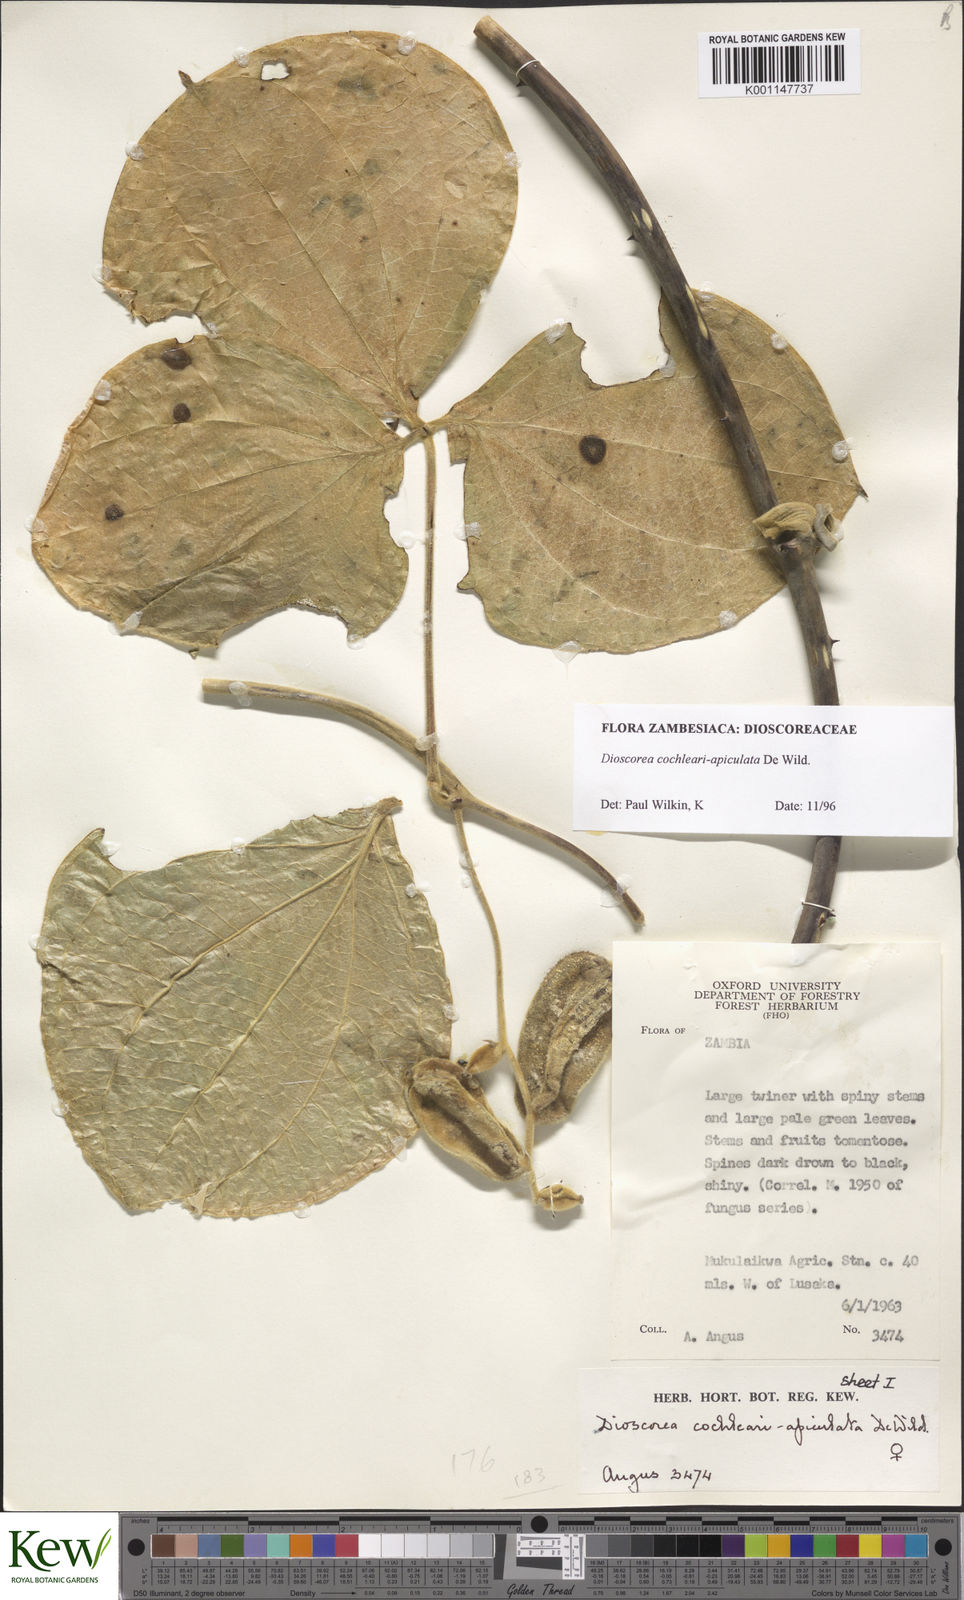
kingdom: Plantae
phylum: Tracheophyta
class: Liliopsida
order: Dioscoreales
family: Dioscoreaceae
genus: Dioscorea
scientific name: Dioscorea cochleariapiculata
